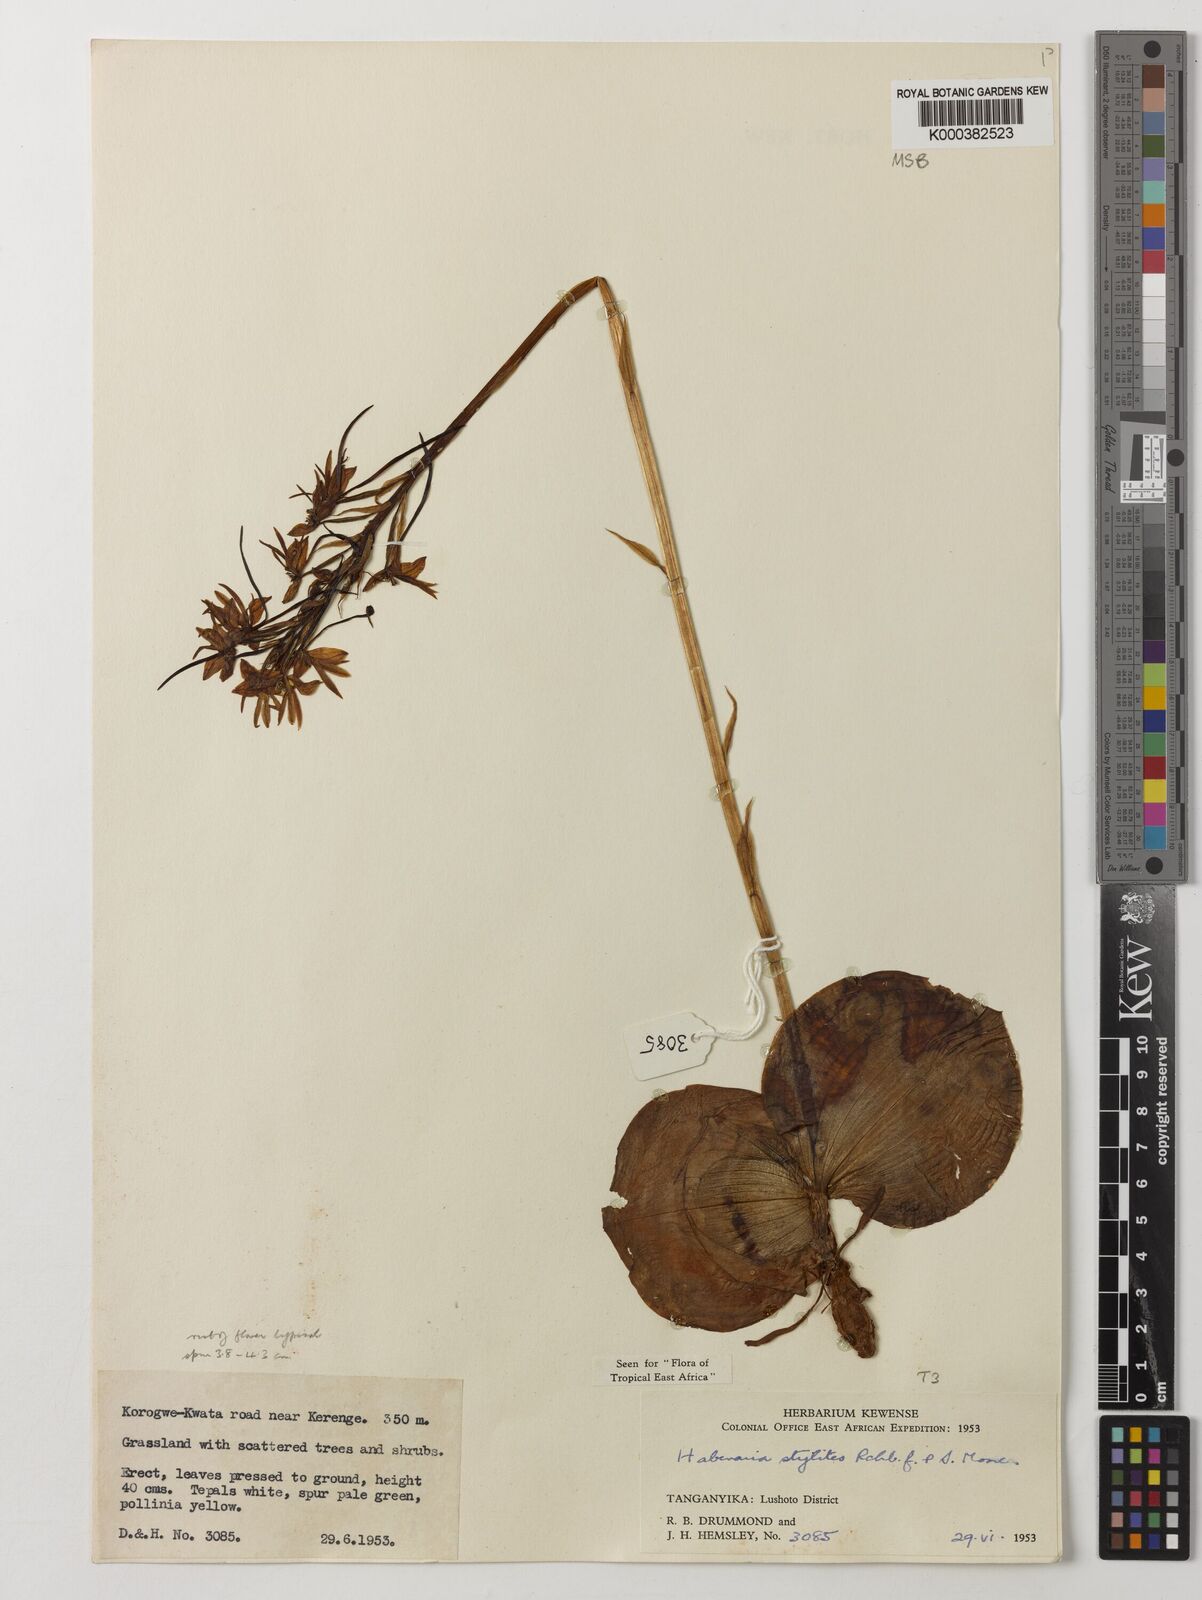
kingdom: Plantae
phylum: Tracheophyta
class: Liliopsida
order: Asparagales
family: Orchidaceae
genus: Habenaria
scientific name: Habenaria stylites
